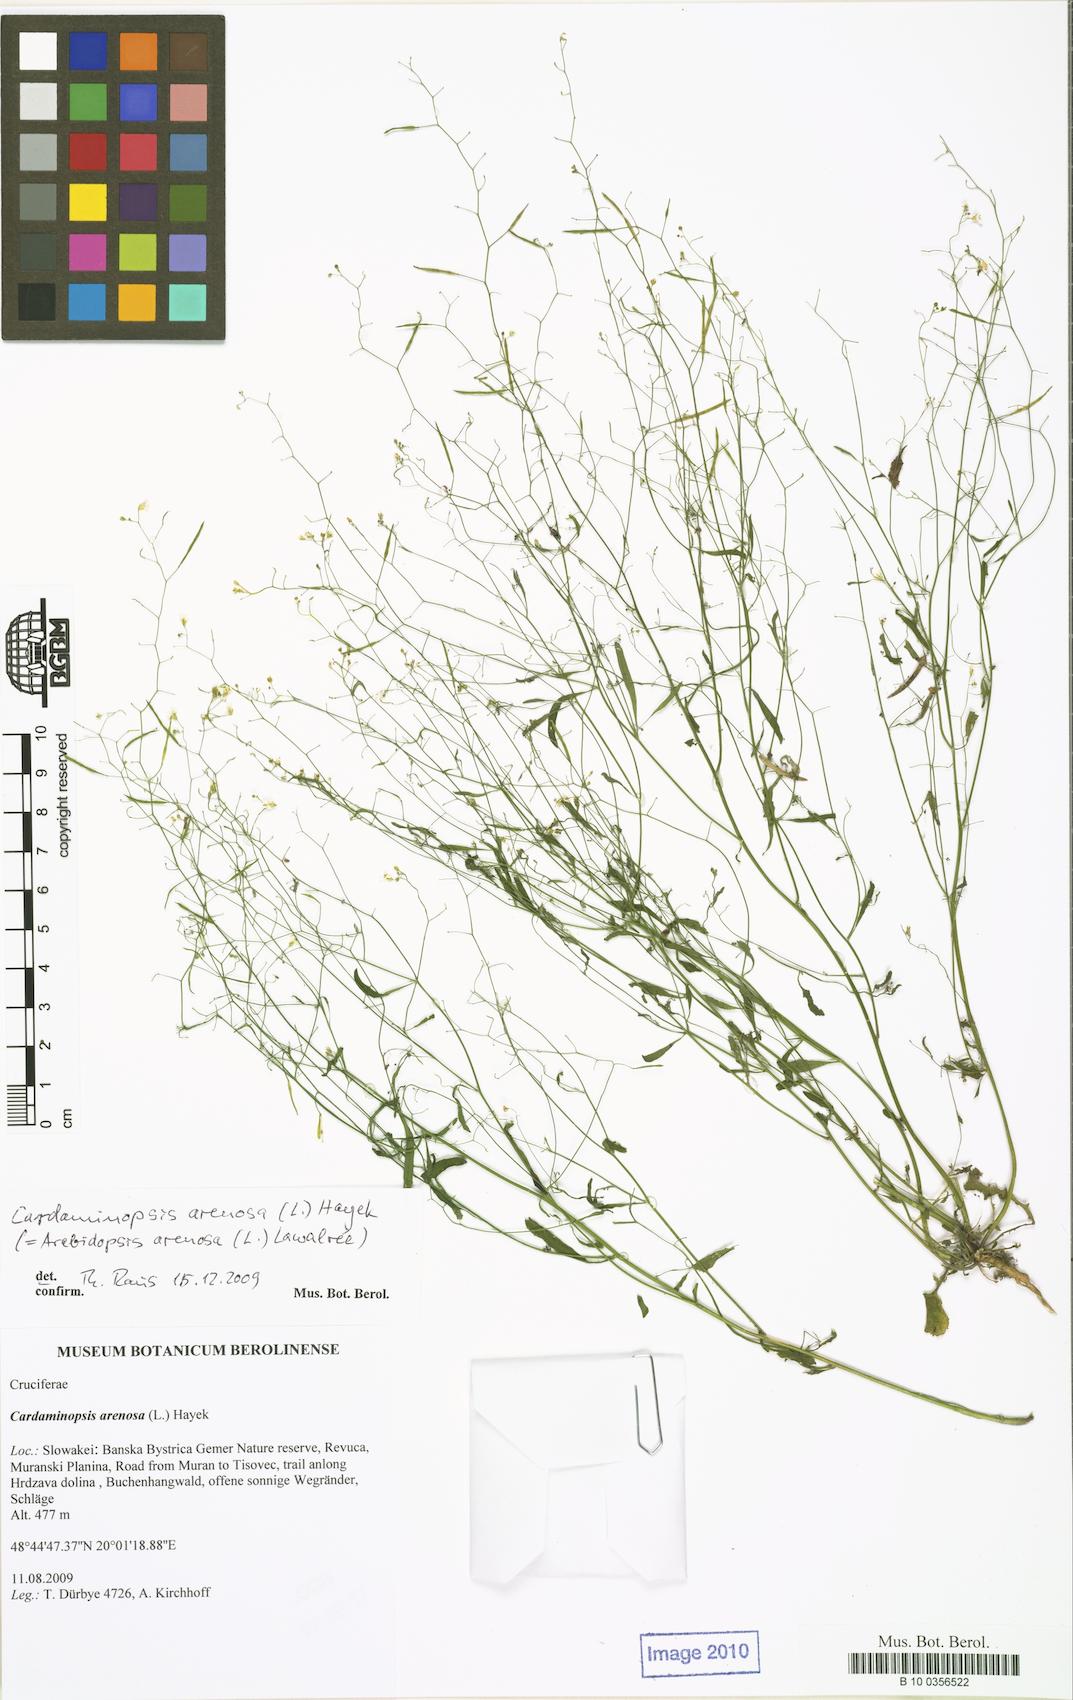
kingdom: Plantae
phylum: Tracheophyta
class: Magnoliopsida
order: Brassicales
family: Brassicaceae
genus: Arabidopsis
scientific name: Arabidopsis arenosa
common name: Sand rock-cress
